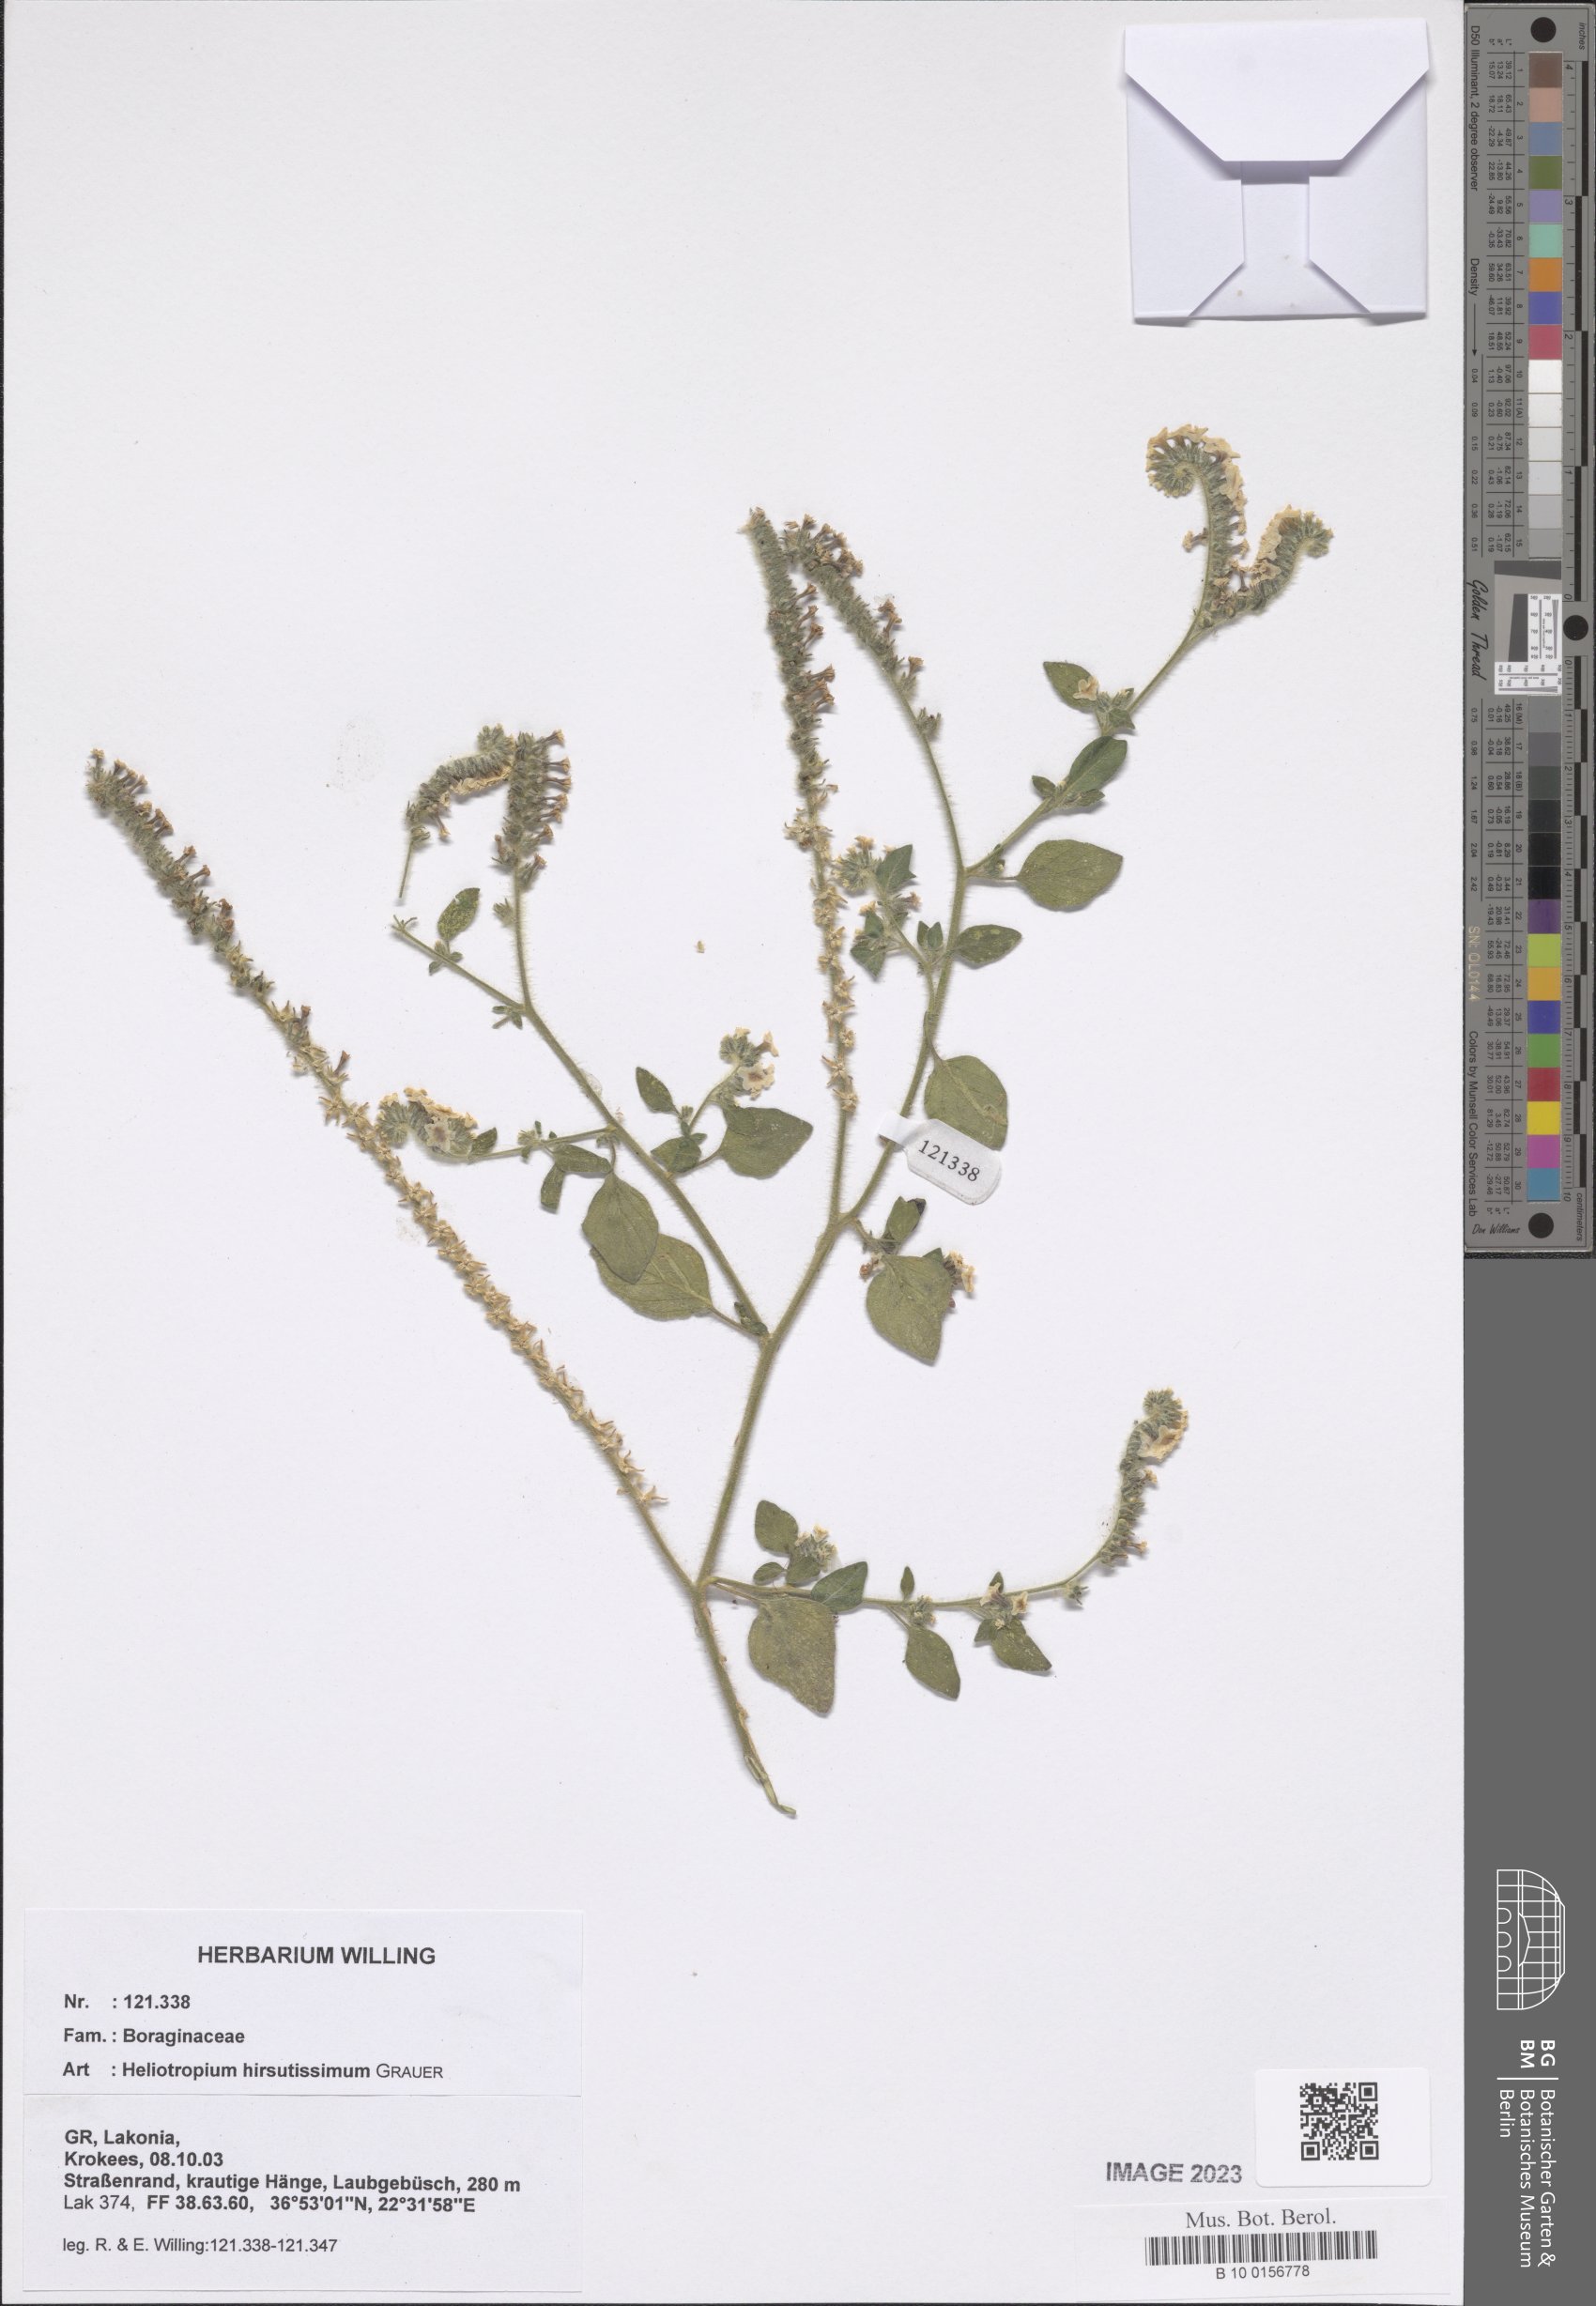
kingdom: Plantae
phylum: Tracheophyta
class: Magnoliopsida
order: Boraginales
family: Heliotropiaceae
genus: Heliotropium
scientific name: Heliotropium hirsutissimum
